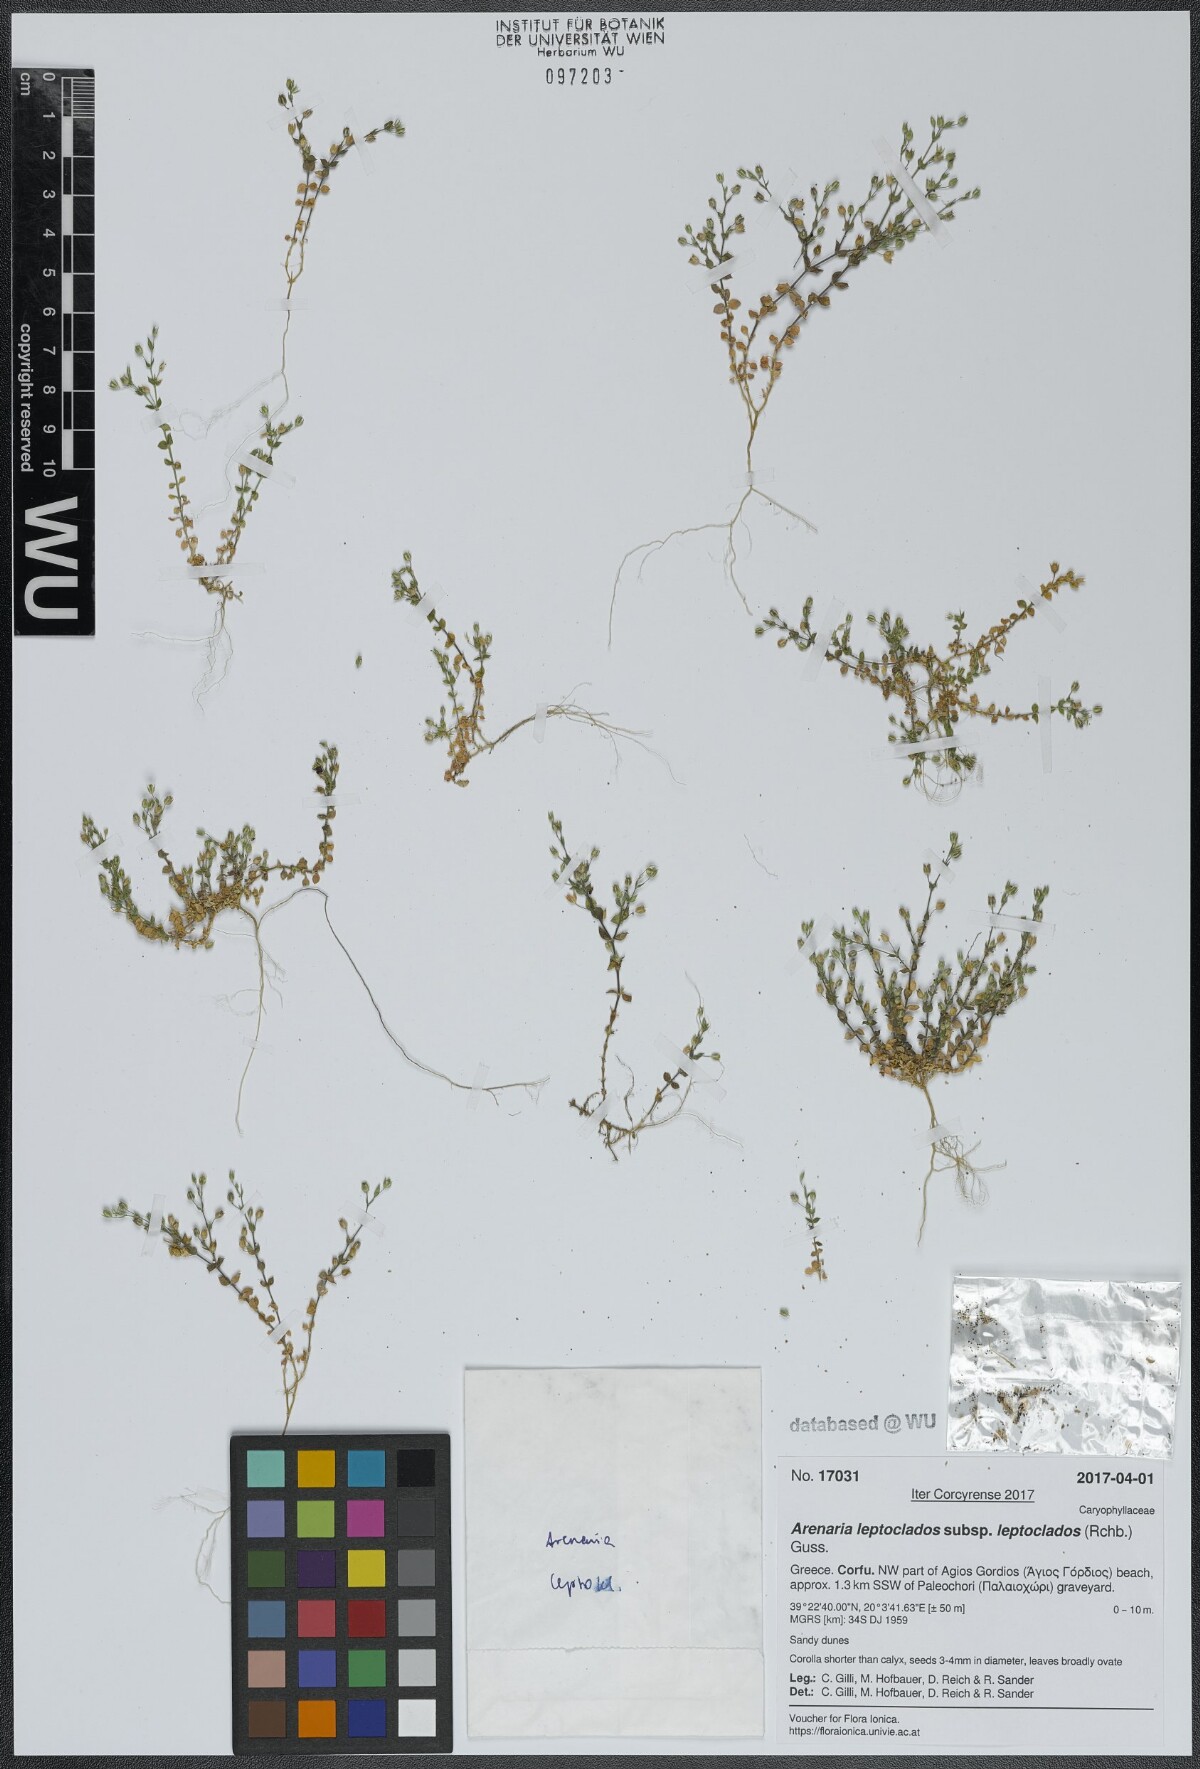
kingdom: Plantae
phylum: Tracheophyta
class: Magnoliopsida
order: Caryophyllales
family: Caryophyllaceae
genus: Arenaria
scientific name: Arenaria leptoclados
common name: Thyme-leaved sandwort
